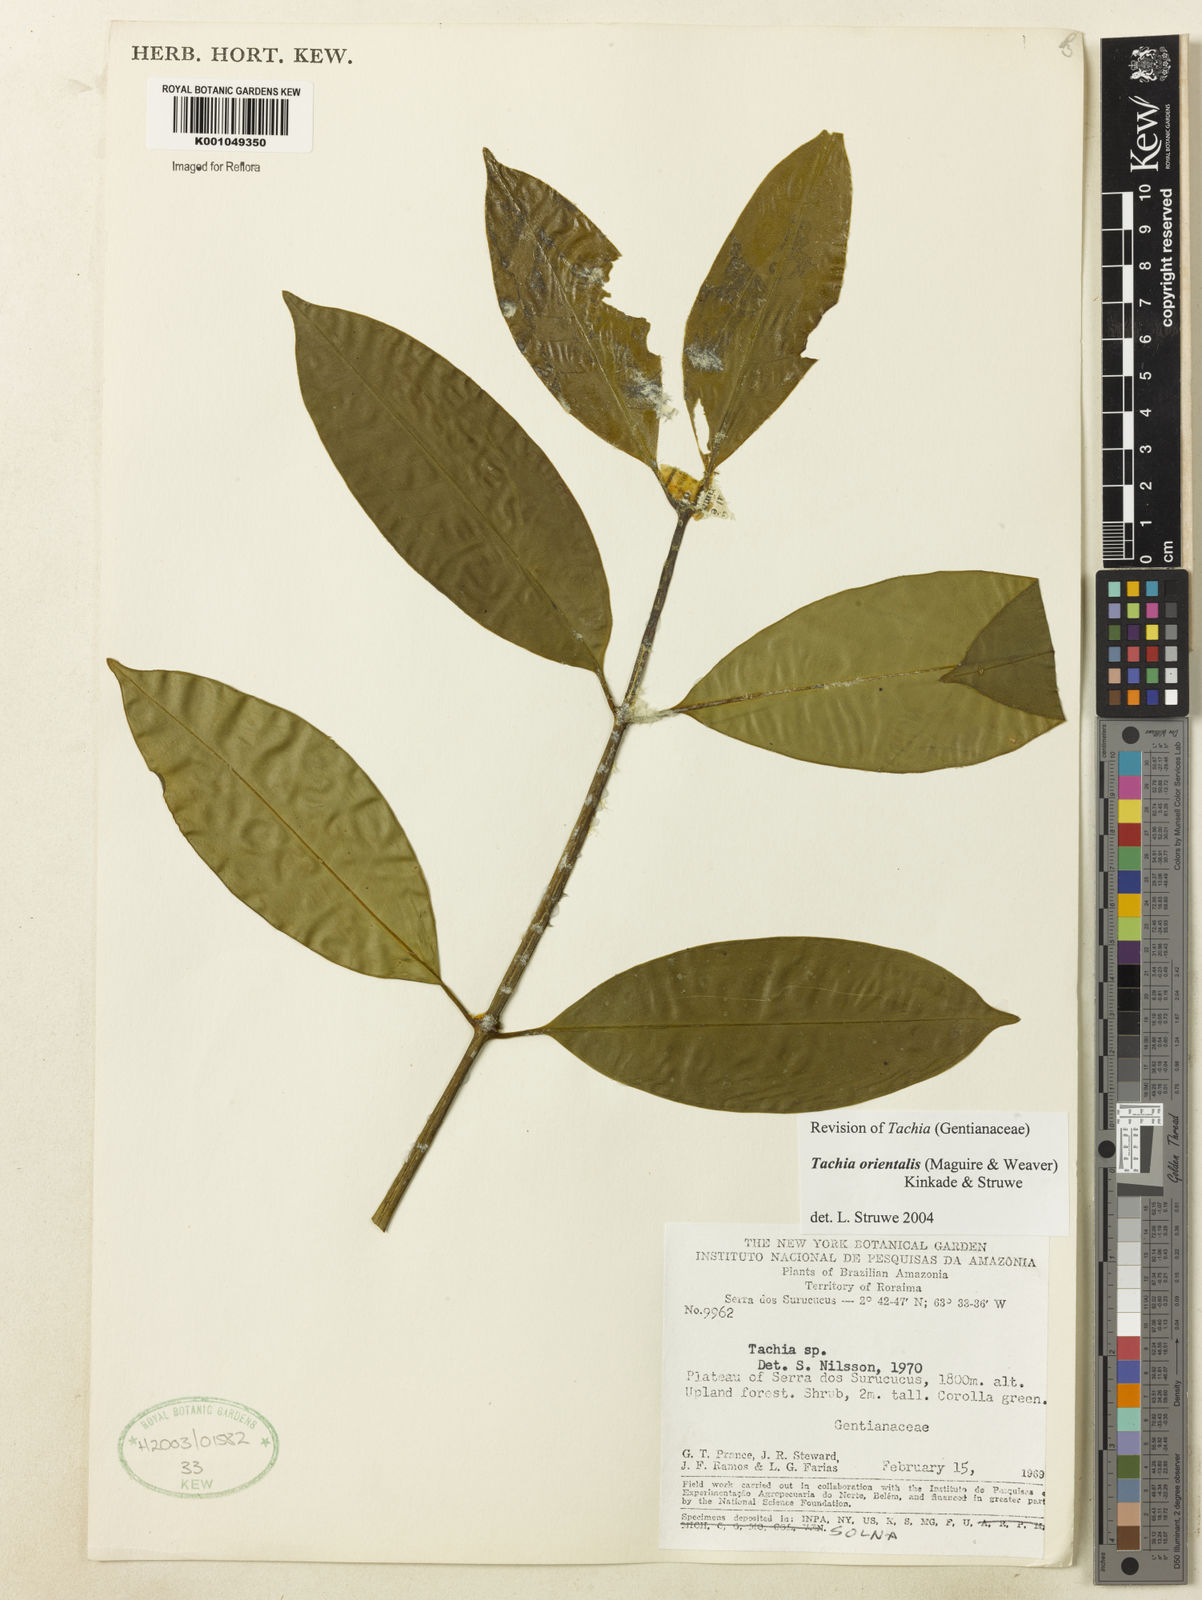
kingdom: Plantae
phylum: Tracheophyta
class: Magnoliopsida
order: Gentianales
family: Gentianaceae
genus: Tachia
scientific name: Tachia orientalis
